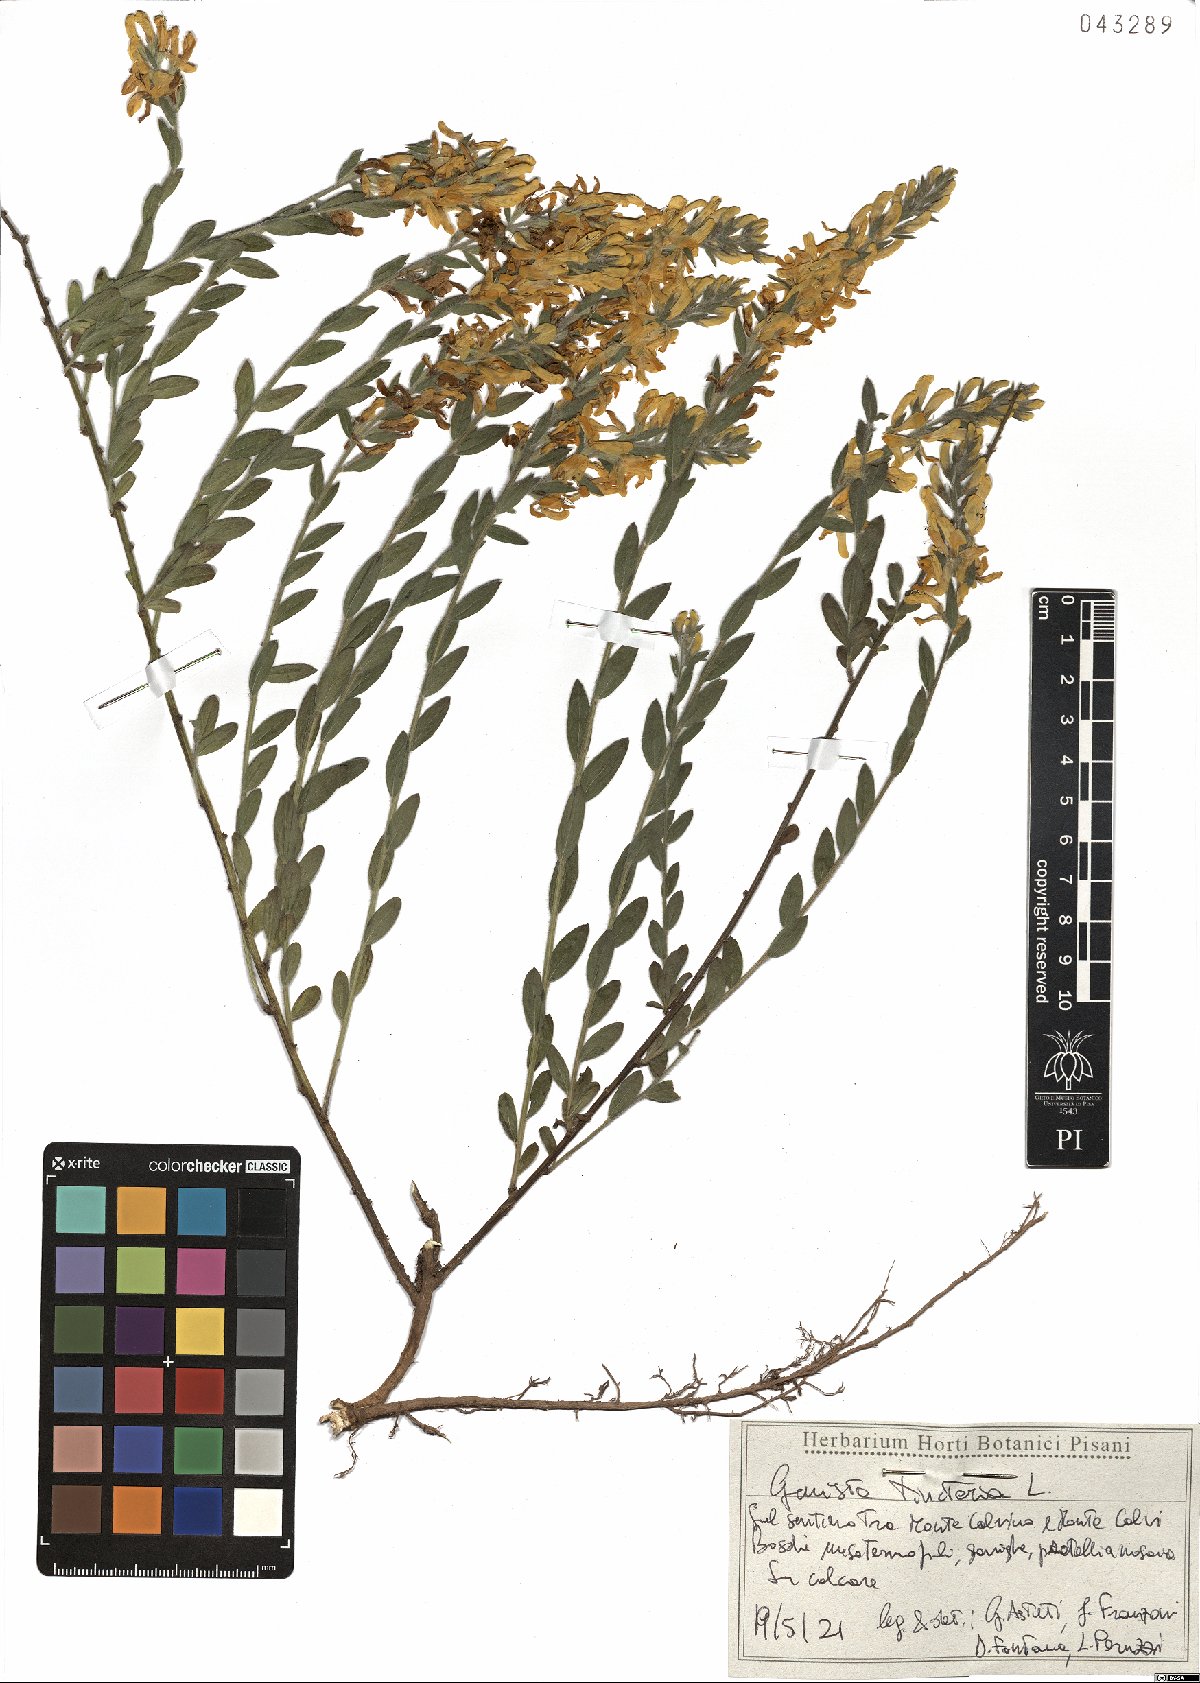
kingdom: Plantae
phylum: Tracheophyta
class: Magnoliopsida
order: Fabales
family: Fabaceae
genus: Genista
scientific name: Genista tinctoria
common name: Dyer's greenweed
